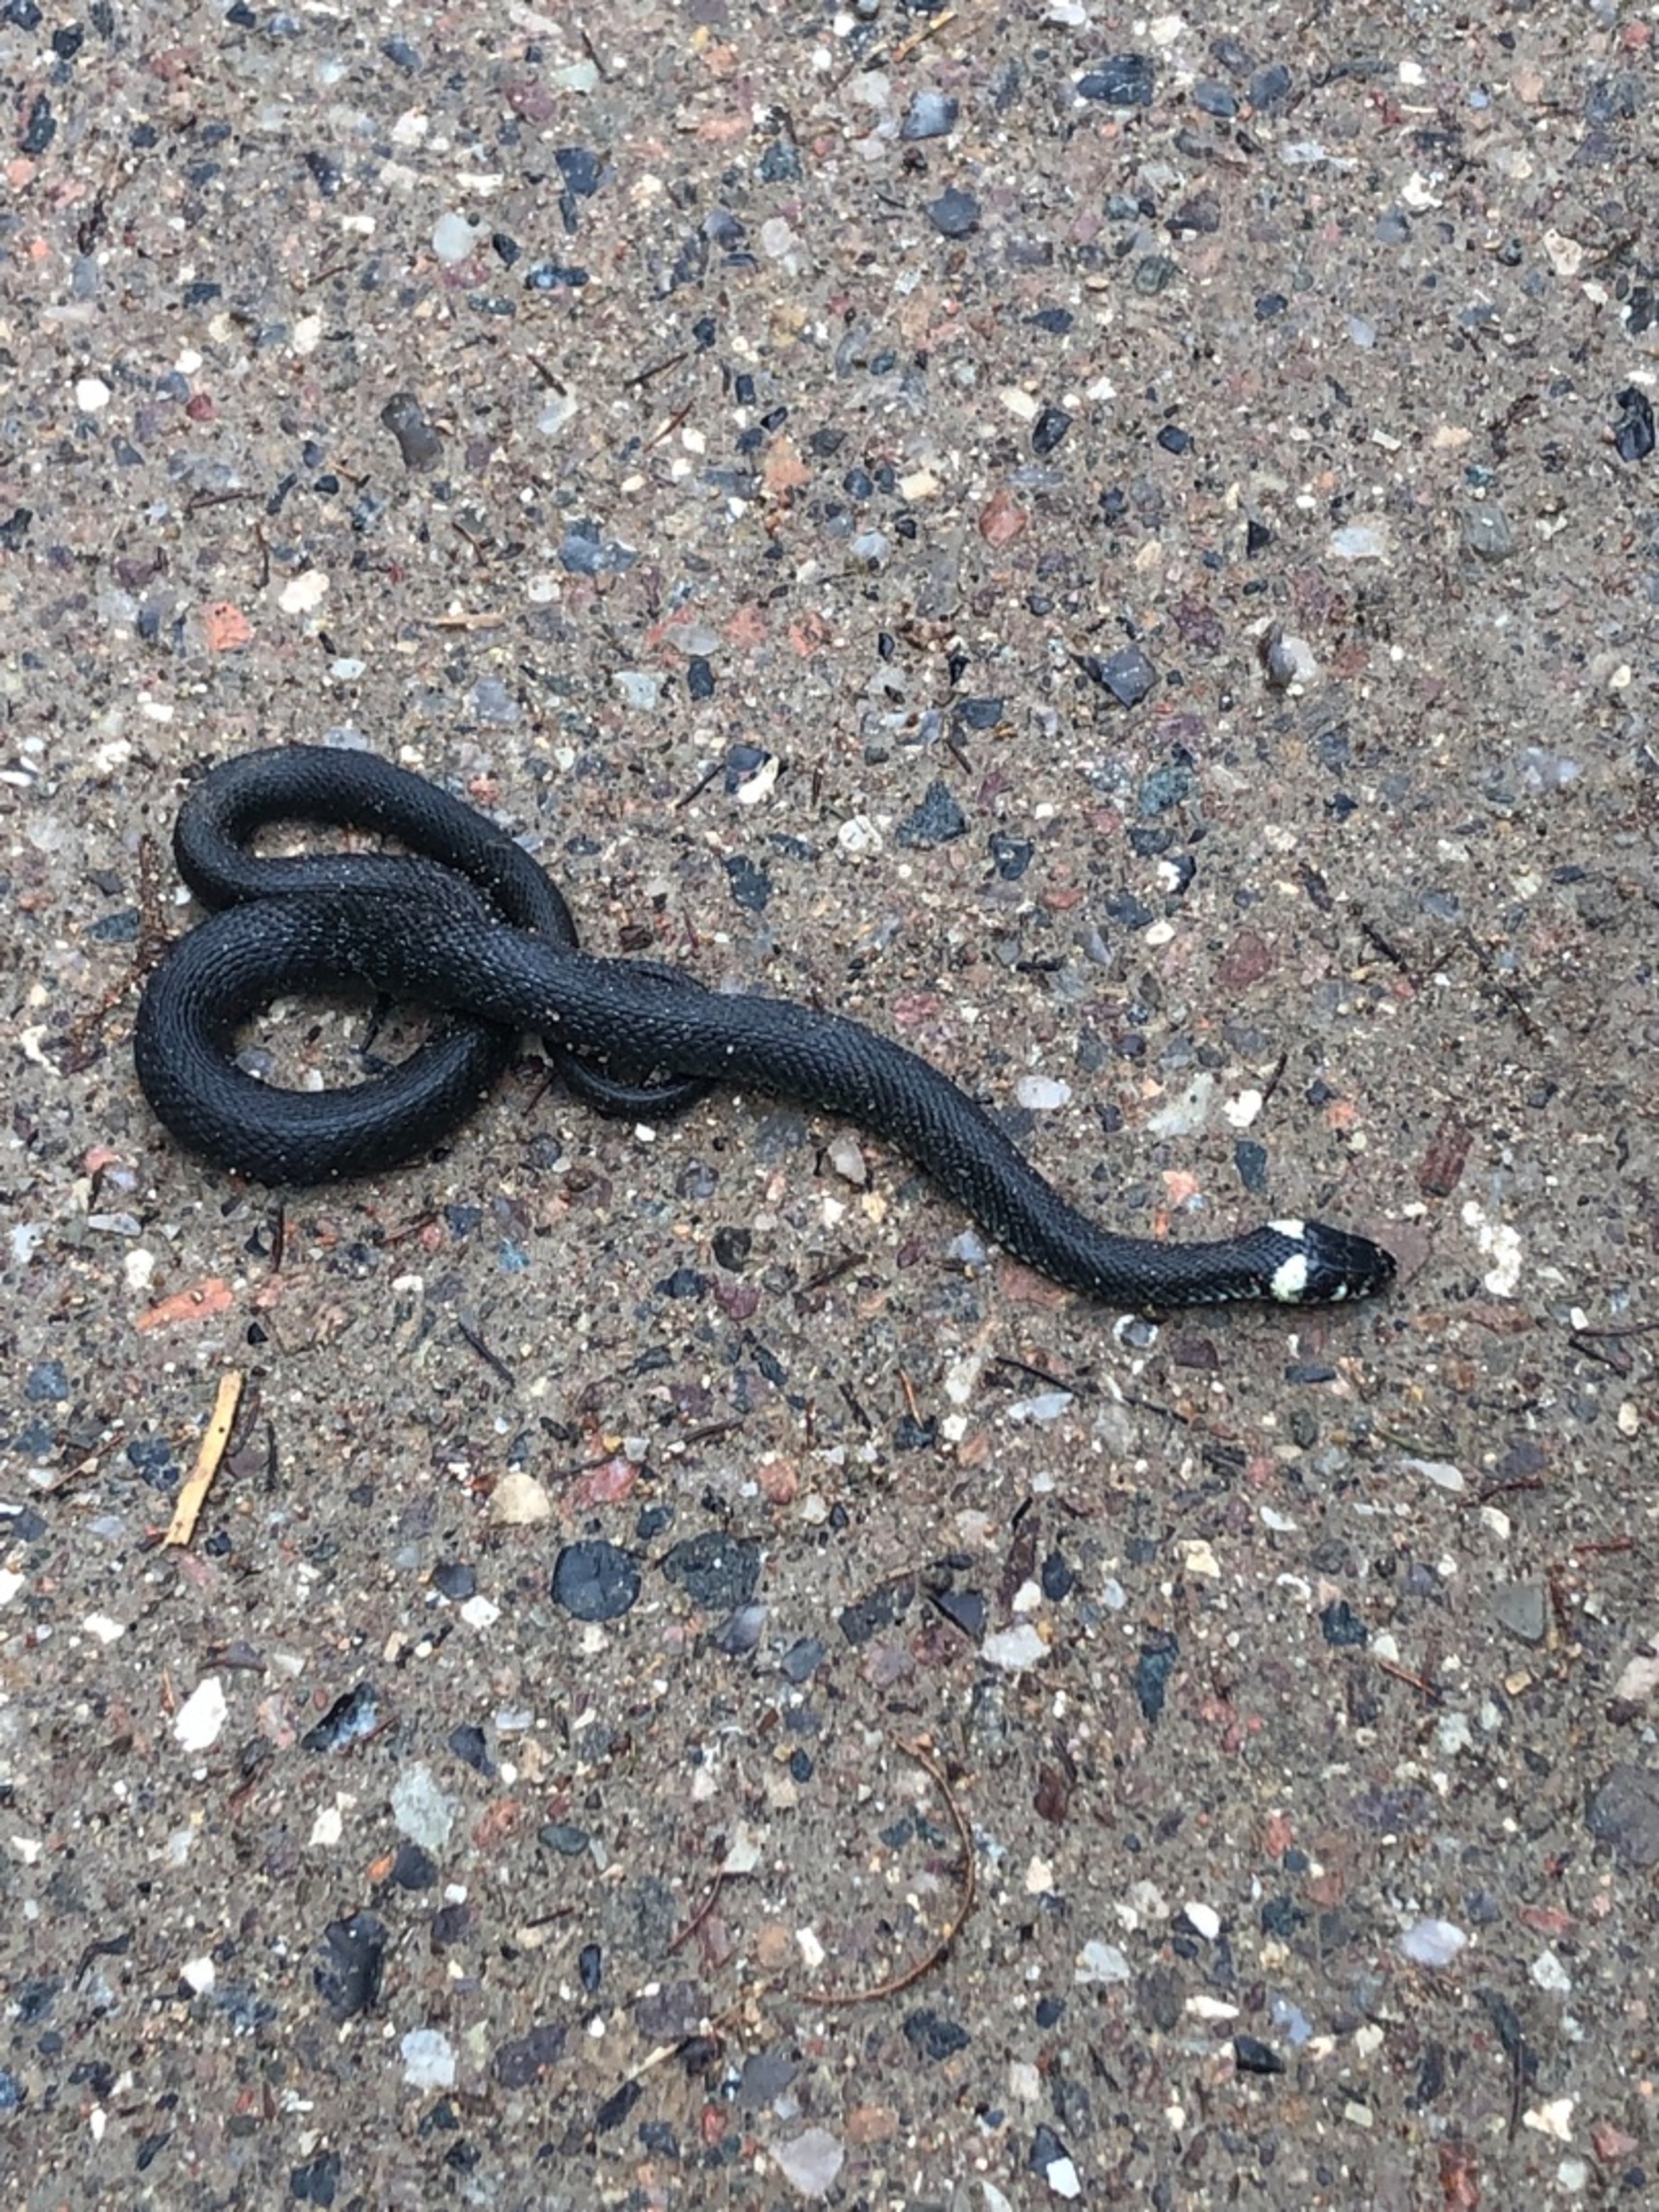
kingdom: Animalia
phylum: Chordata
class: Squamata
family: Colubridae
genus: Natrix
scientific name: Natrix natrix
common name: Snog
